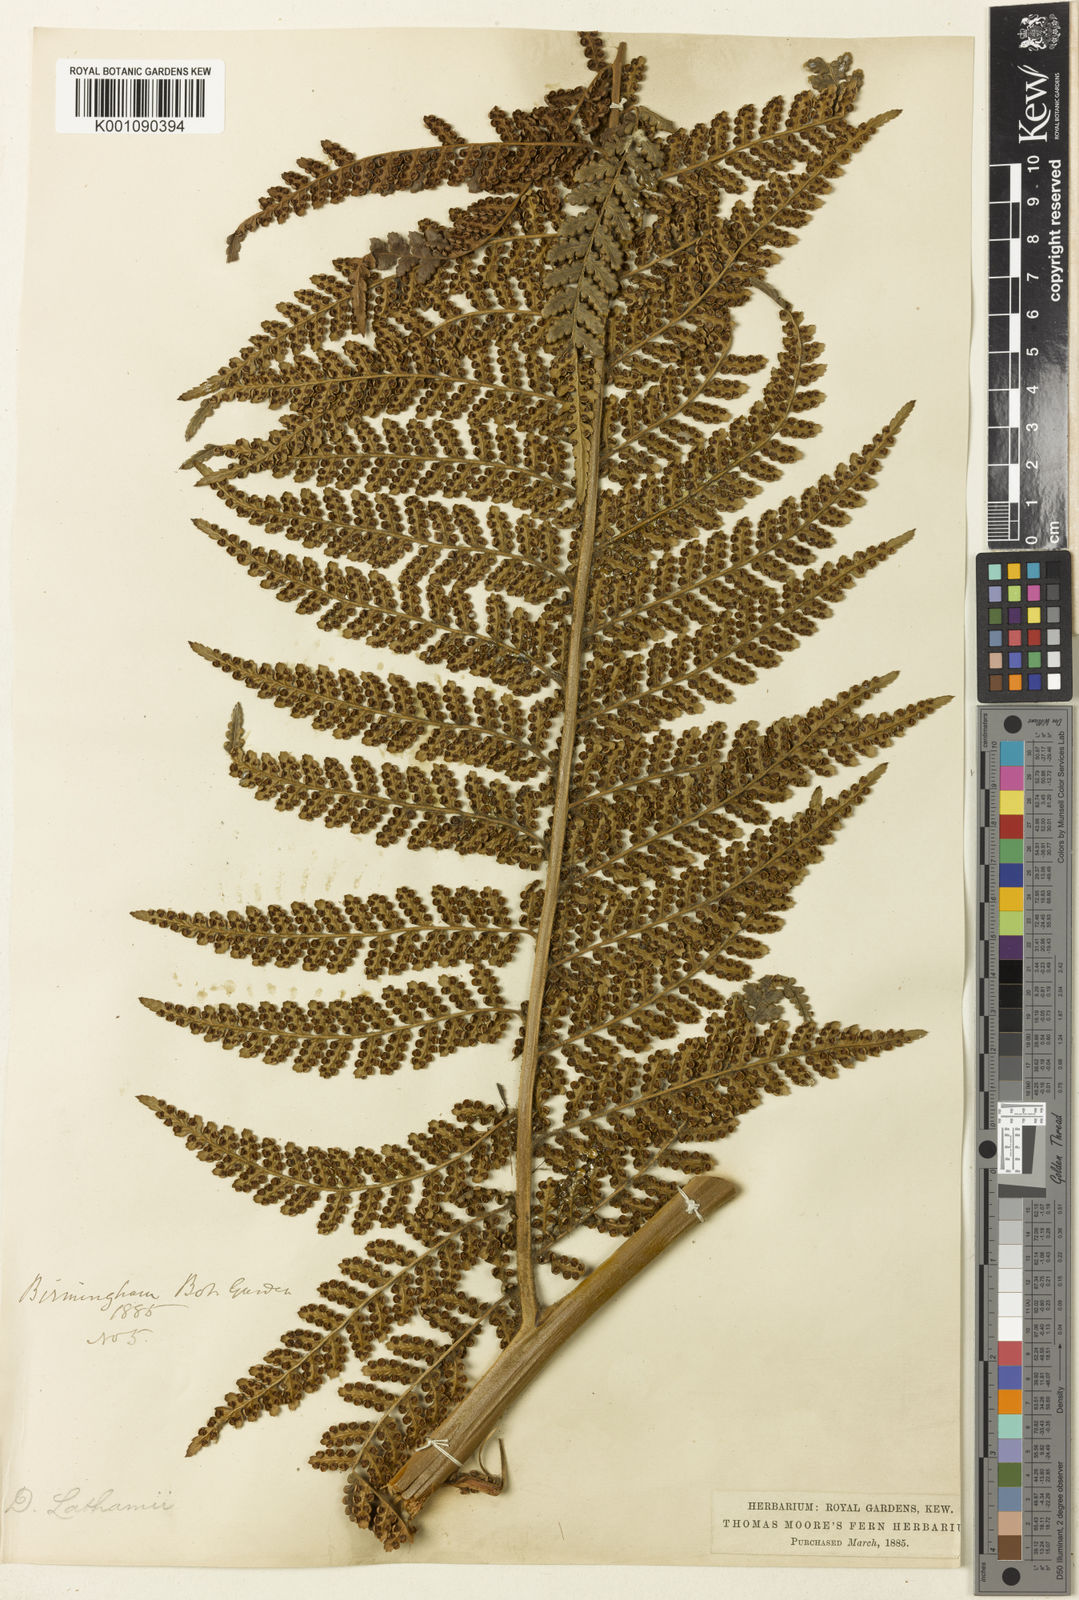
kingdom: Plantae
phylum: Tracheophyta
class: Polypodiopsida
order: Cyatheales
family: Dicksoniaceae
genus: Dicksonia
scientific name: Dicksonia lathamii
